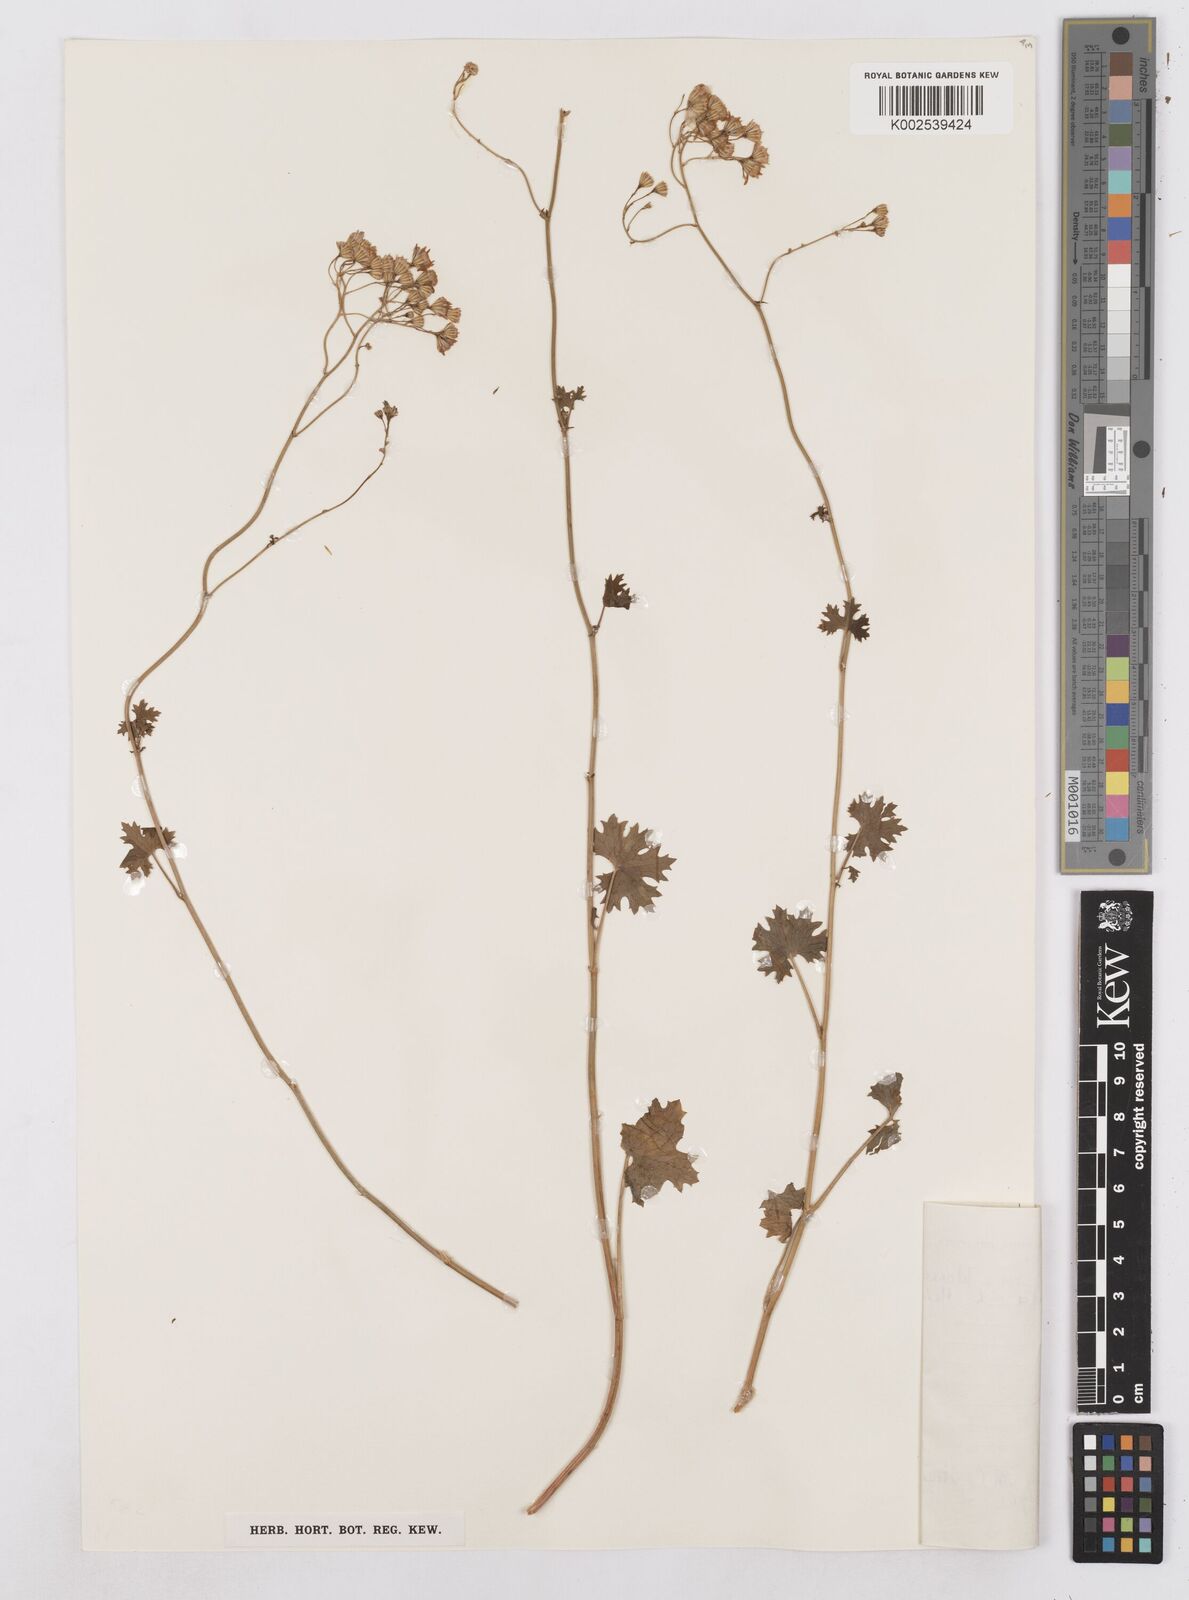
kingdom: Plantae
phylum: Tracheophyta
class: Magnoliopsida
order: Asterales
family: Asteraceae
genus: Cineraria
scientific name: Cineraria
